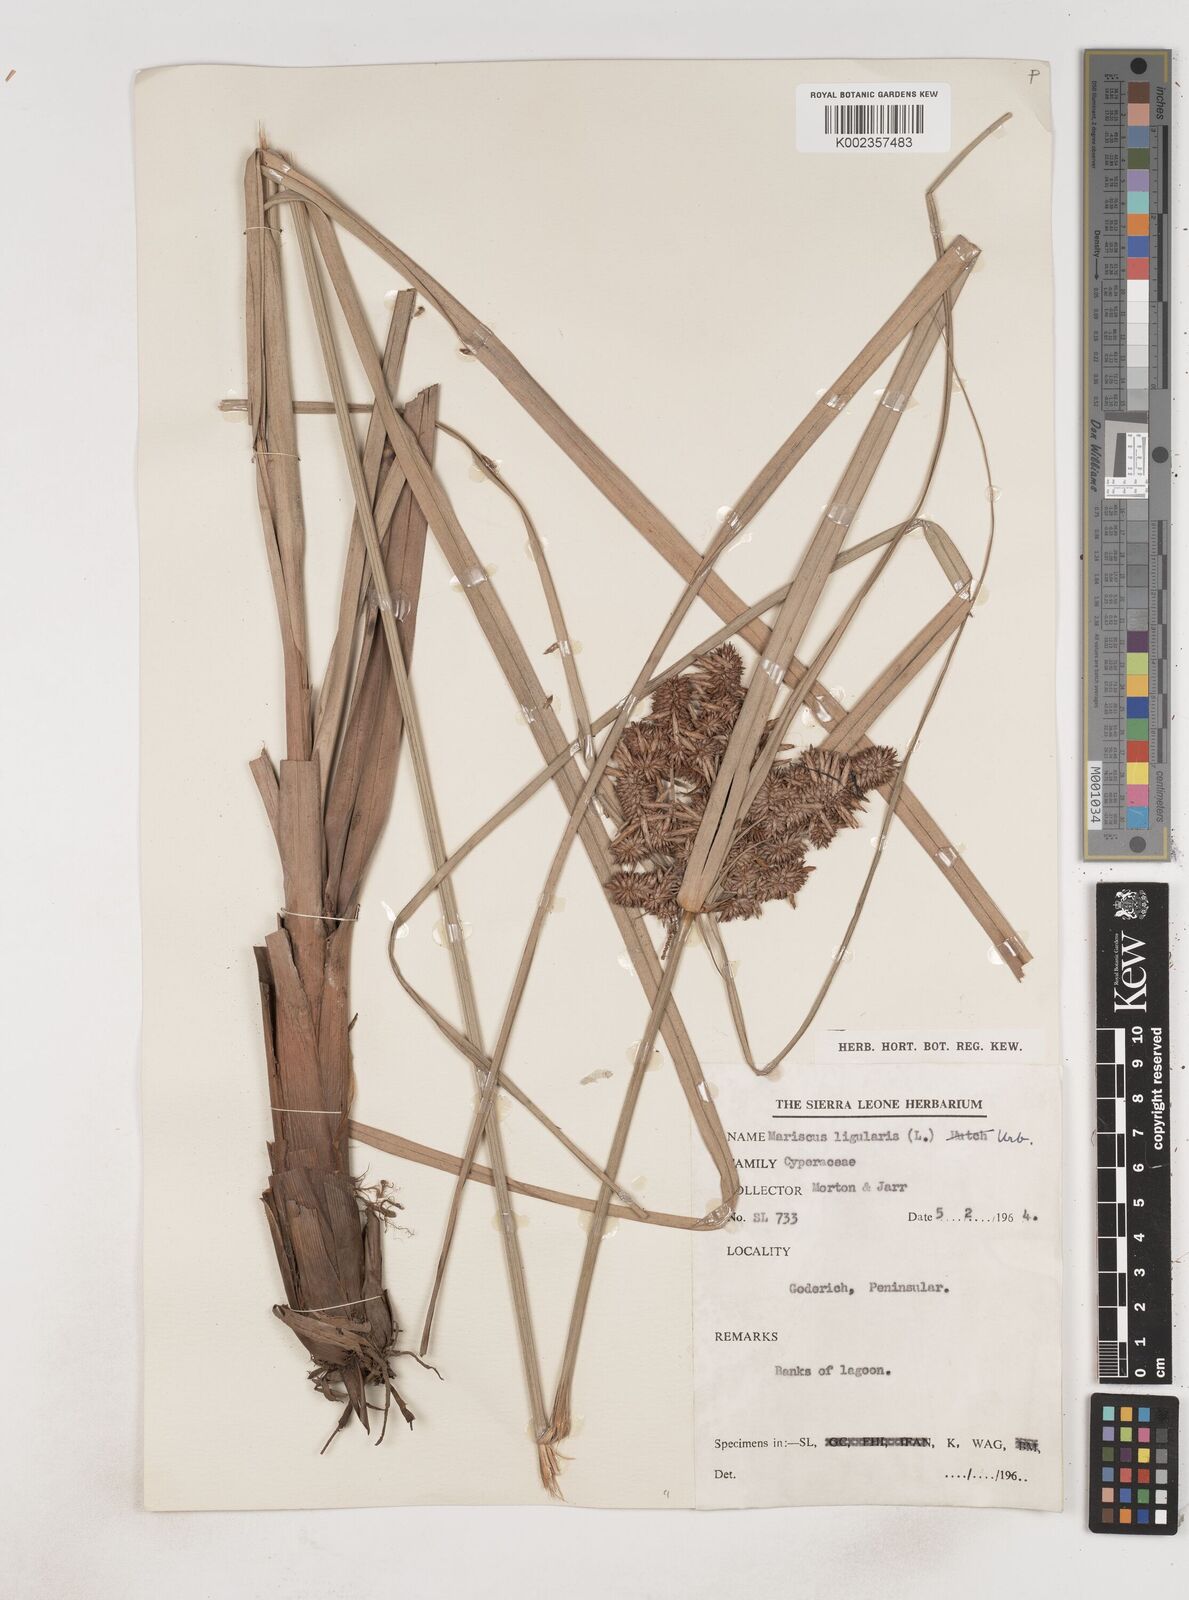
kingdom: Plantae
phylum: Tracheophyta
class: Liliopsida
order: Poales
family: Cyperaceae
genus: Cyperus
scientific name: Cyperus ligularis
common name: Swamp flat sedge
